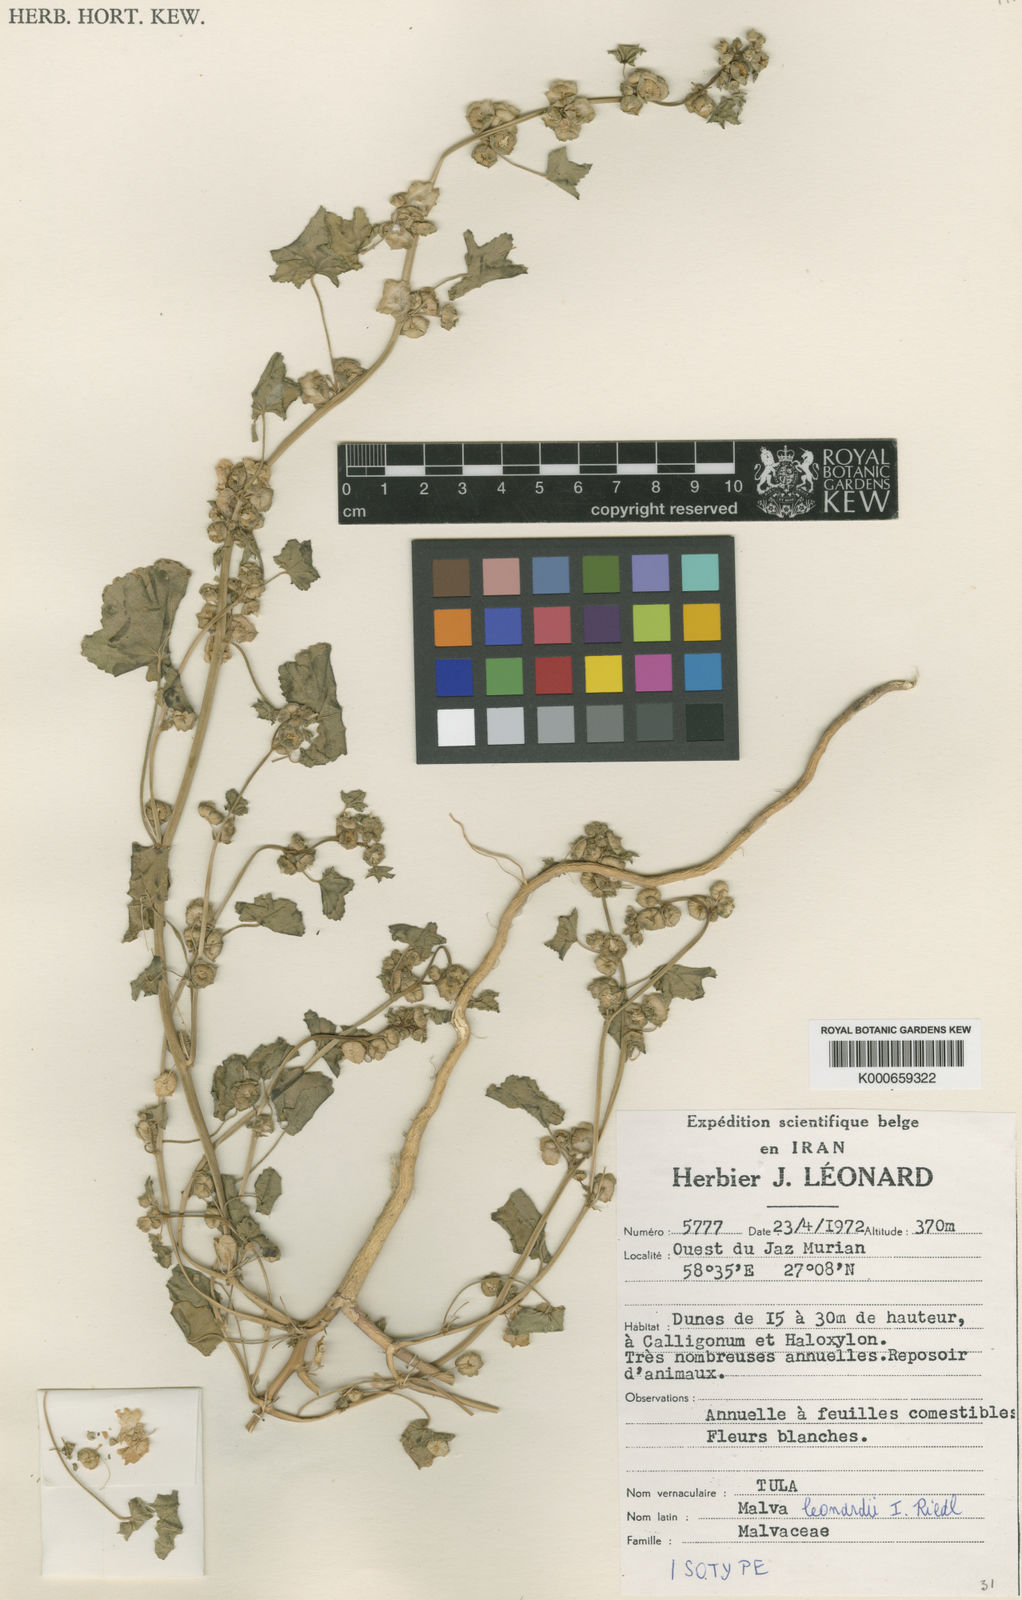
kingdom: Plantae
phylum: Tracheophyta
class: Magnoliopsida
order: Malvales
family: Malvaceae
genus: Malva
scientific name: Malva leonardii
